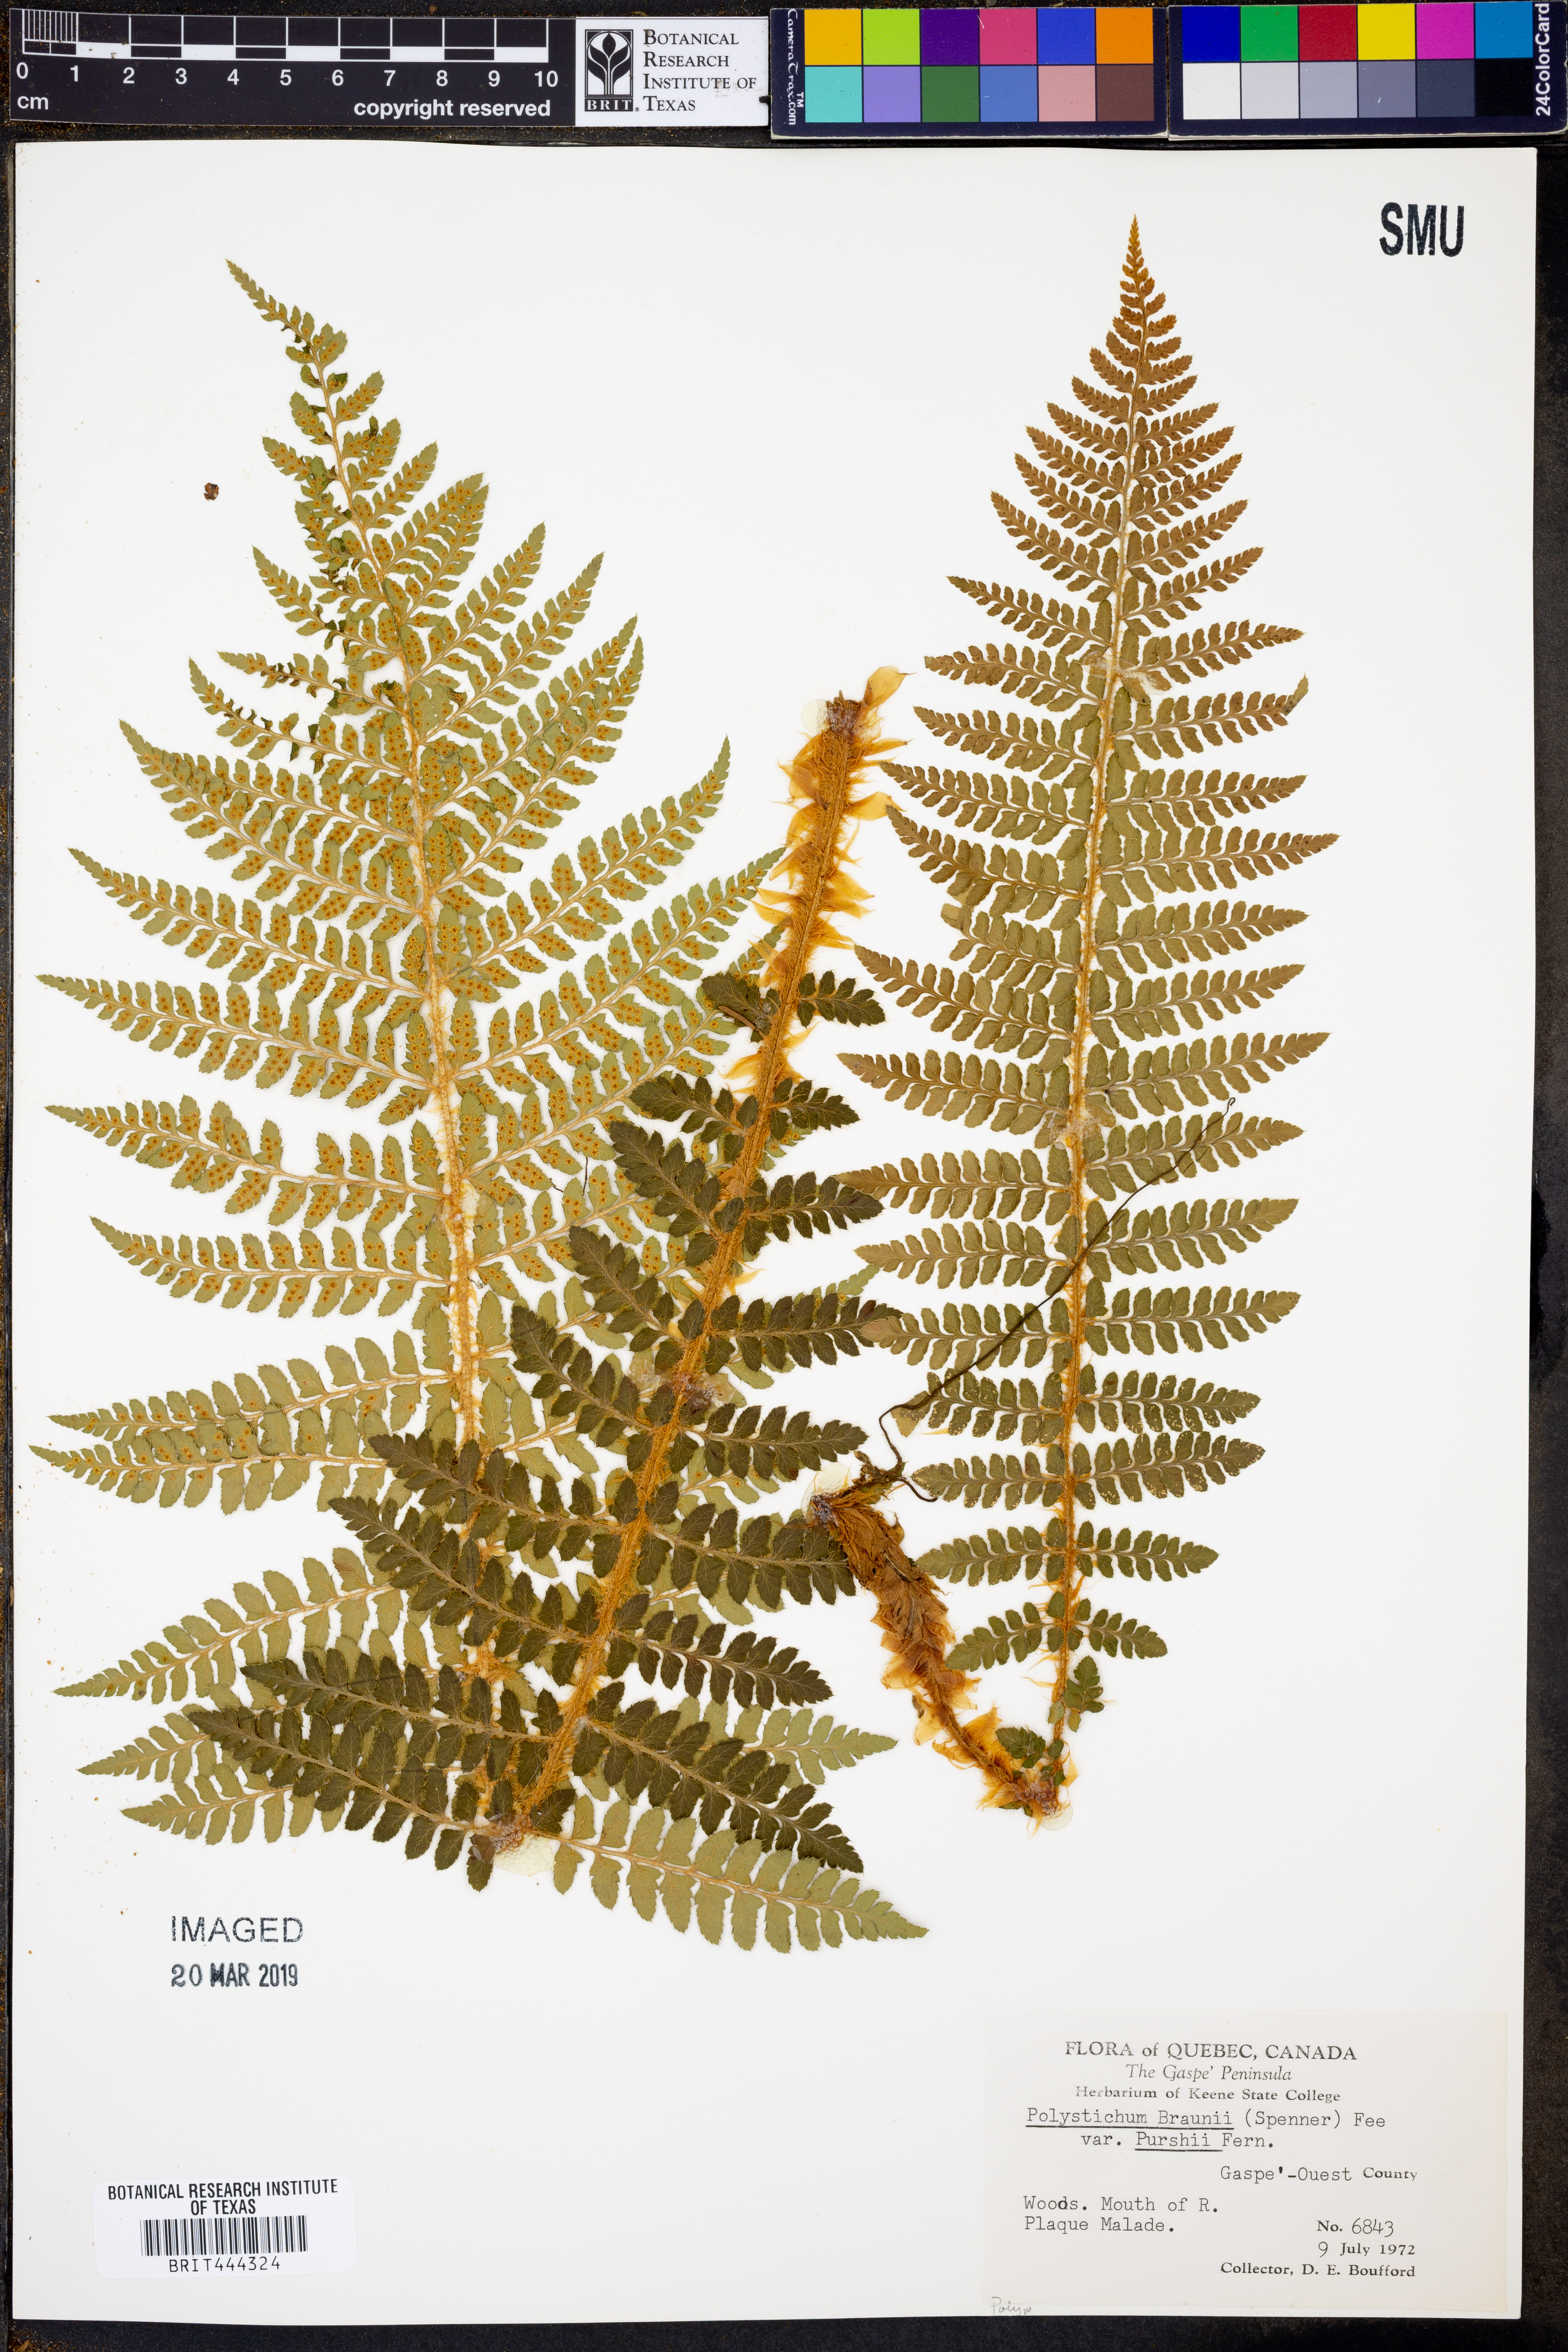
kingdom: Plantae
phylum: Tracheophyta
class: Polypodiopsida
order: Polypodiales
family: Dryopteridaceae
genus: Polystichum
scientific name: Polystichum braunii
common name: Braun's holly fern
